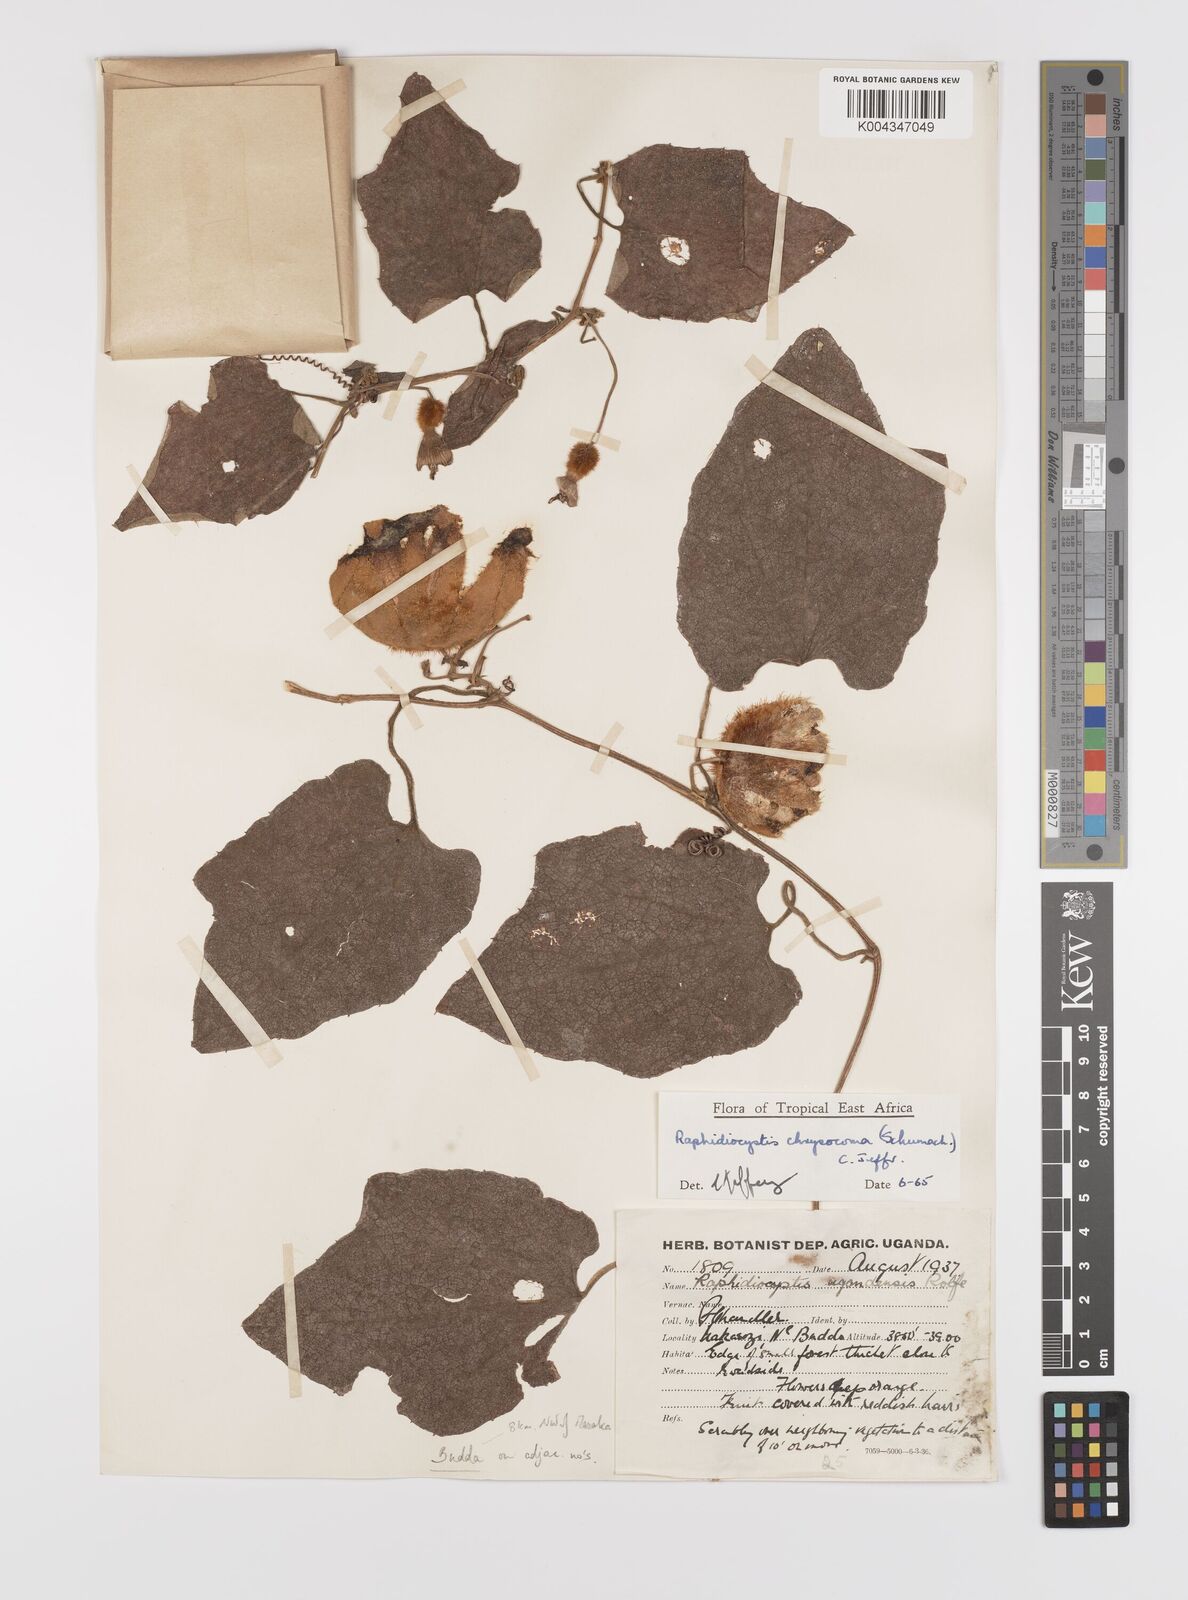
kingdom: Plantae
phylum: Tracheophyta
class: Magnoliopsida
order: Cucurbitales
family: Cucurbitaceae
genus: Raphidiocystis
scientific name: Raphidiocystis chrysocoma
